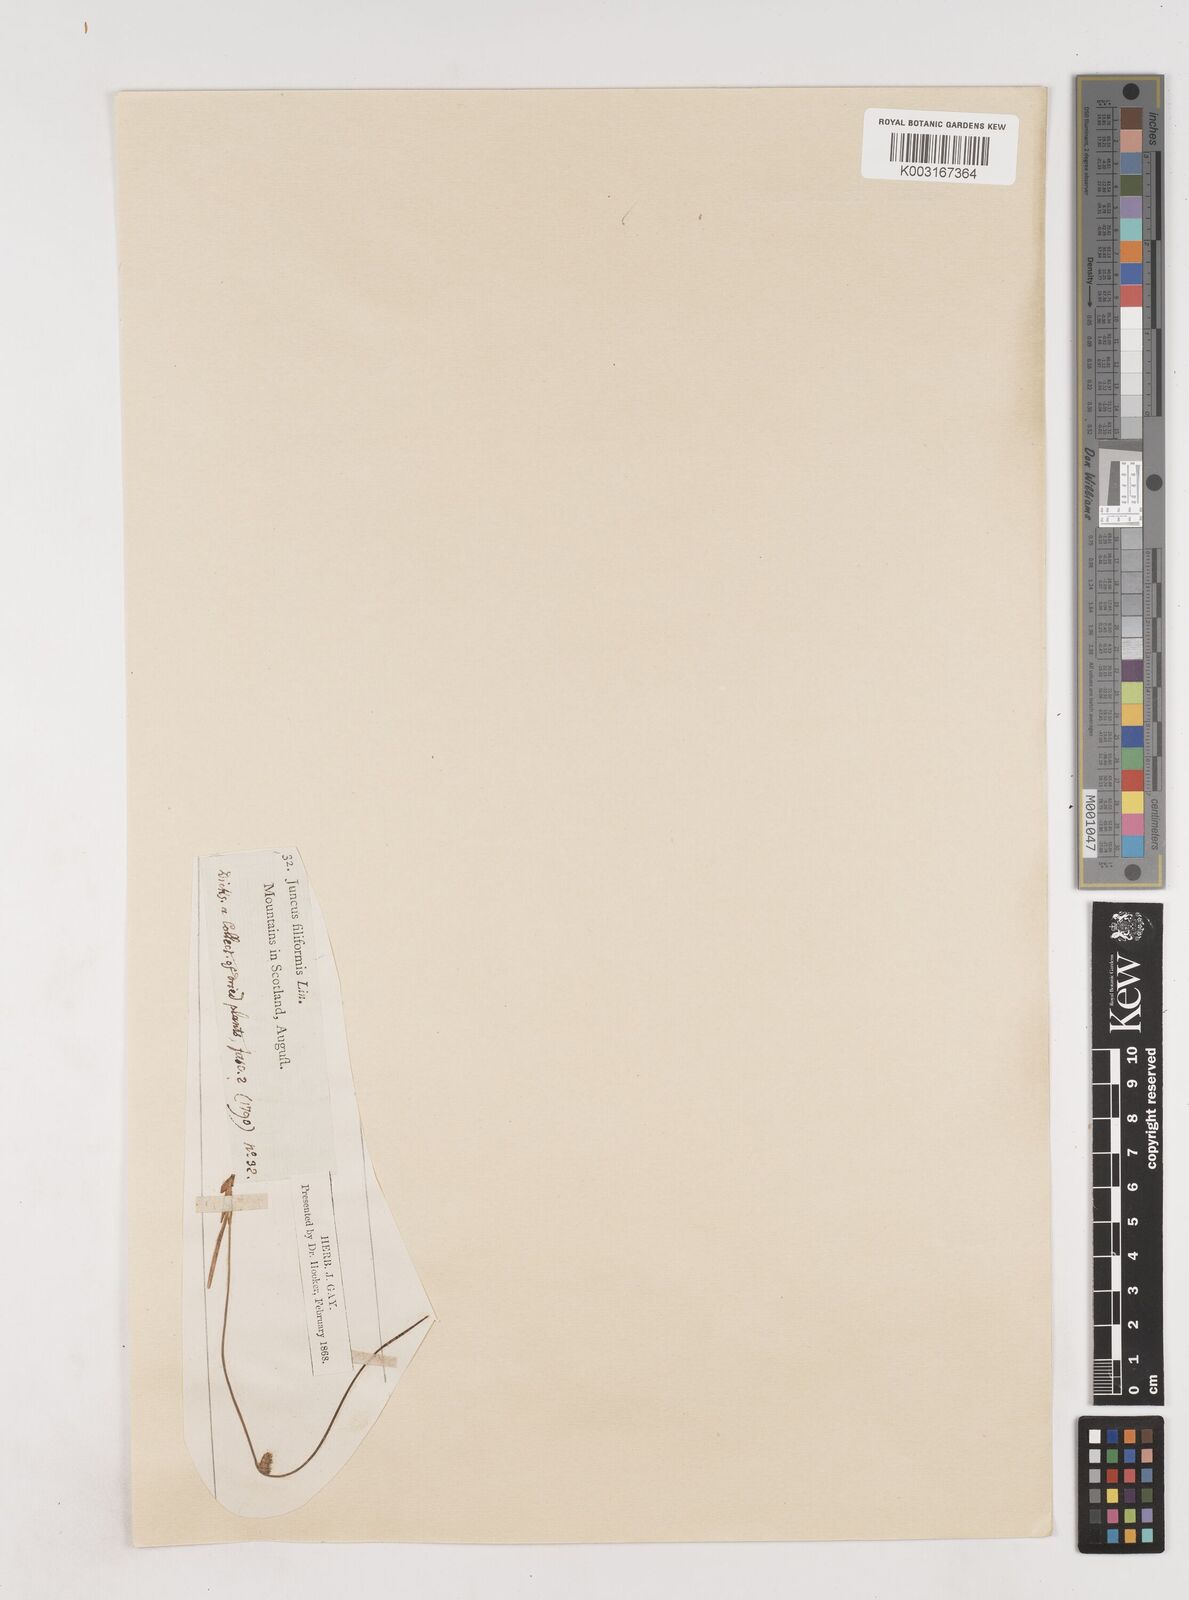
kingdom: Plantae
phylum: Tracheophyta
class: Liliopsida
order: Poales
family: Juncaceae
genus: Juncus
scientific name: Juncus filiformis
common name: Thread rush
